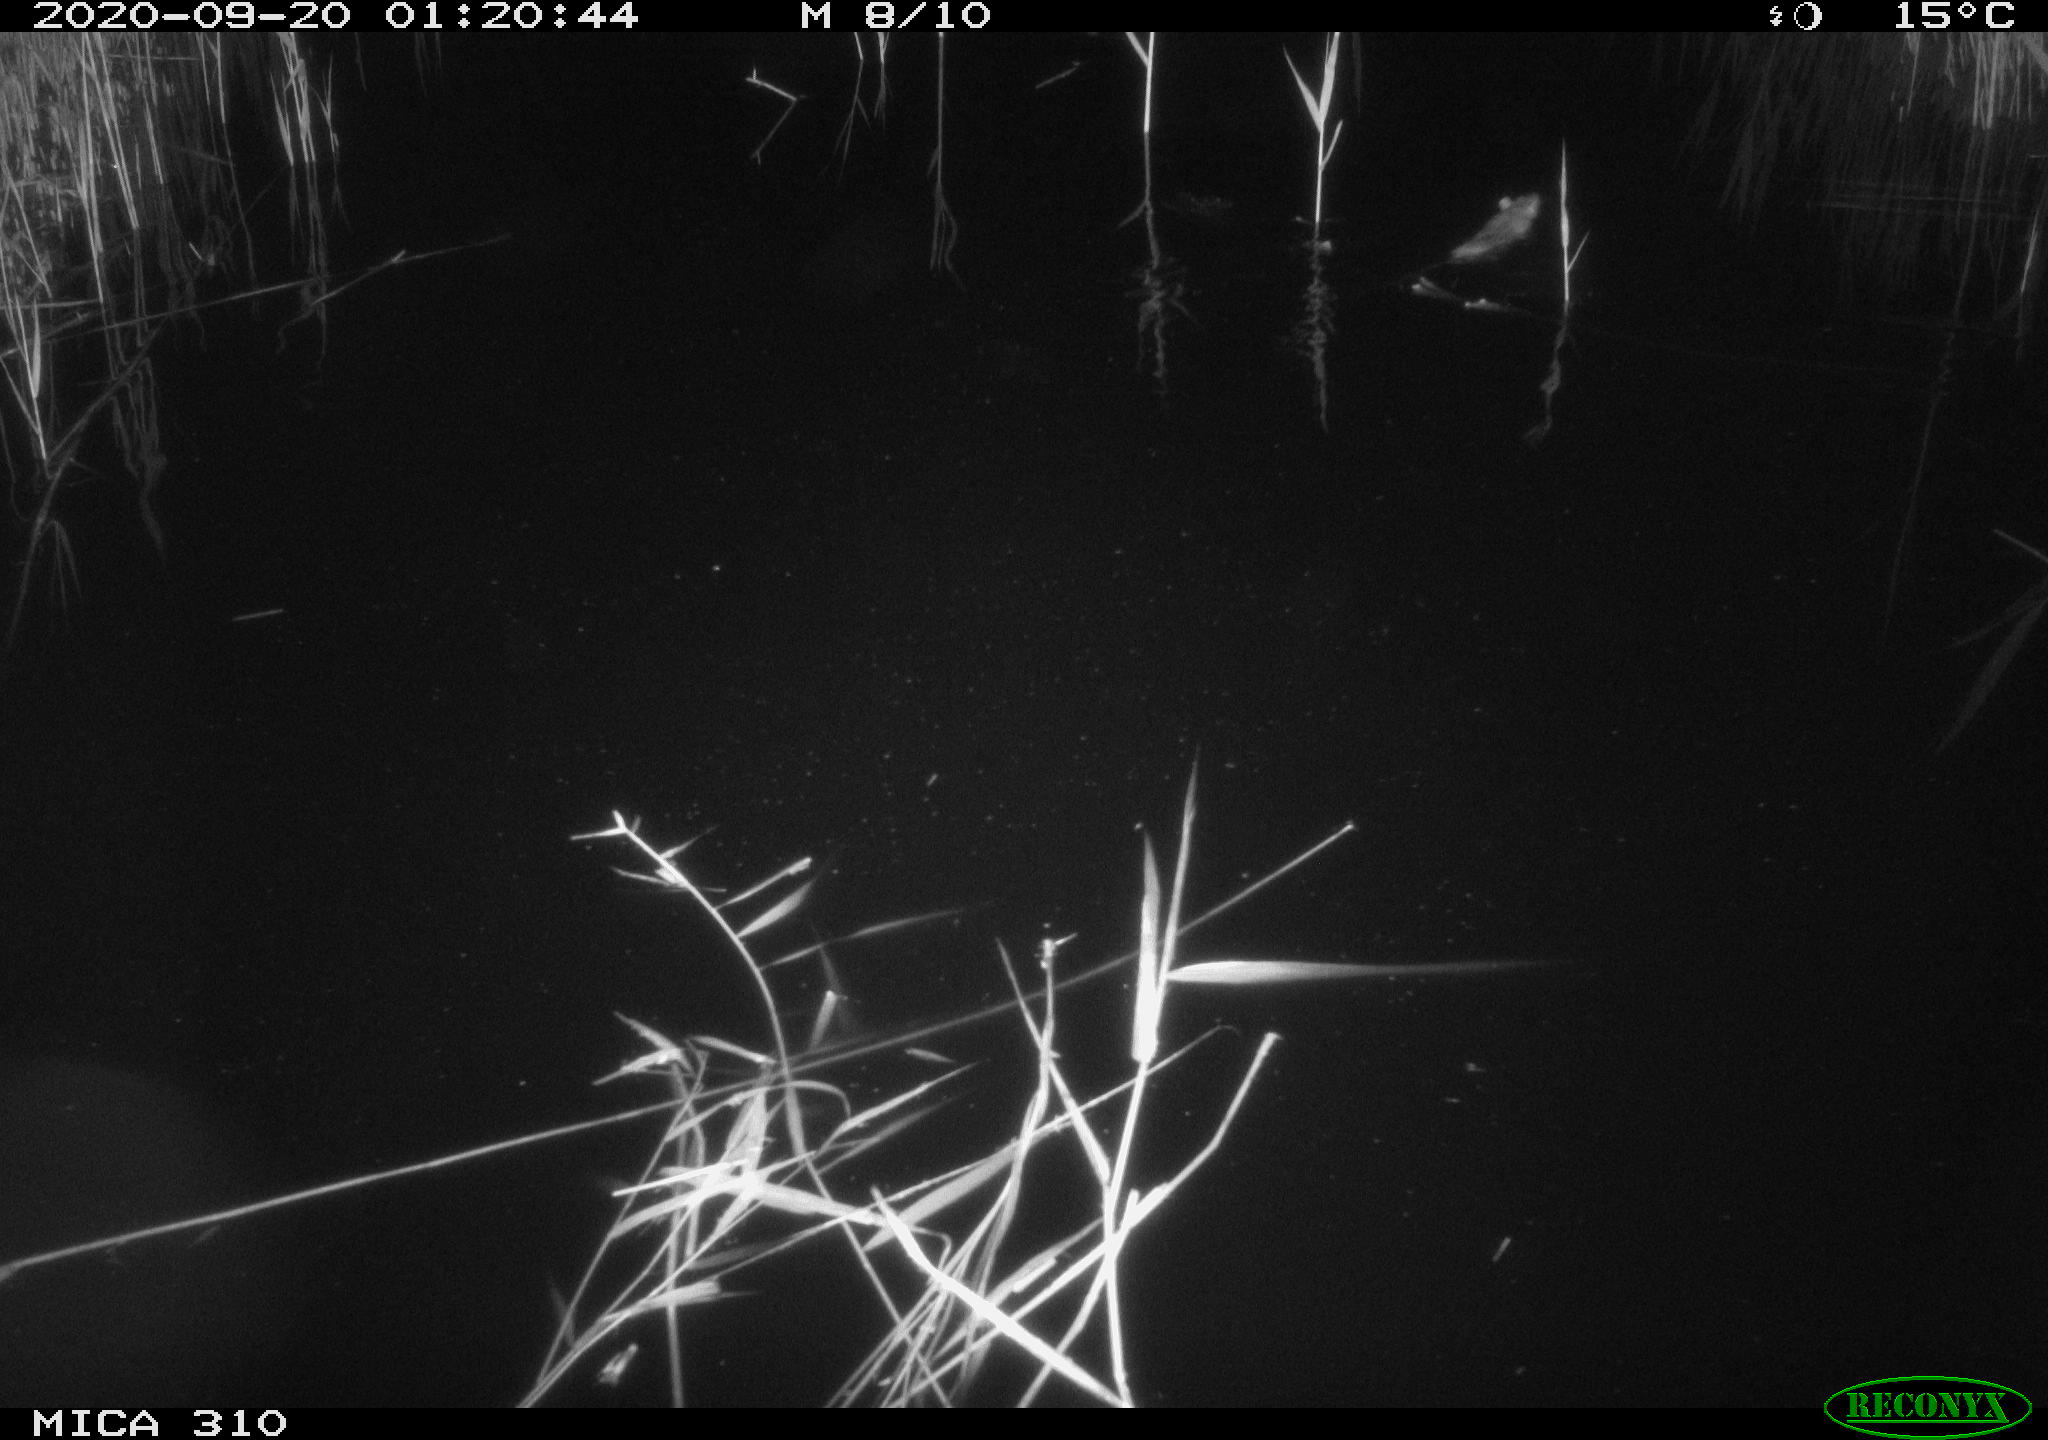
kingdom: Animalia
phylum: Chordata
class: Mammalia
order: Rodentia
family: Muridae
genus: Rattus
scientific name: Rattus norvegicus
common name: Brown rat
